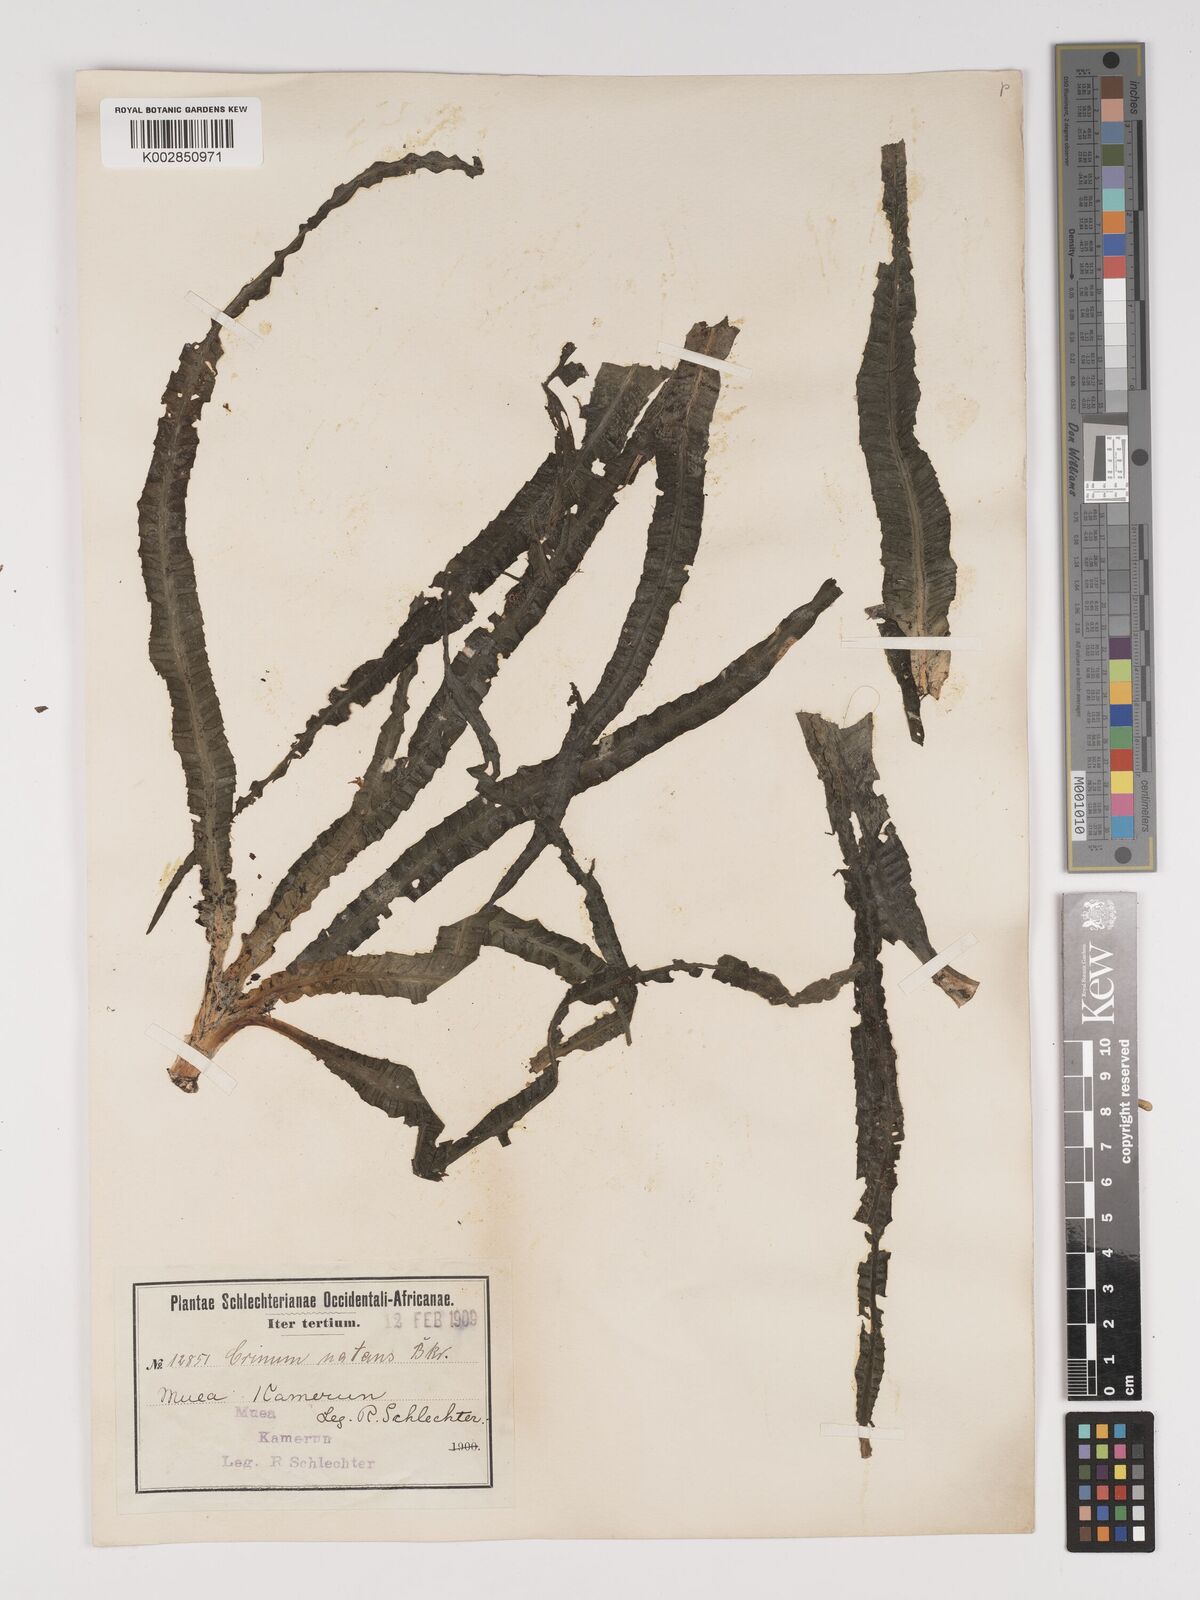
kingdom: Plantae
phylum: Tracheophyta
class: Liliopsida
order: Asparagales
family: Amaryllidaceae
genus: Crinum
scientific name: Crinum moorei
